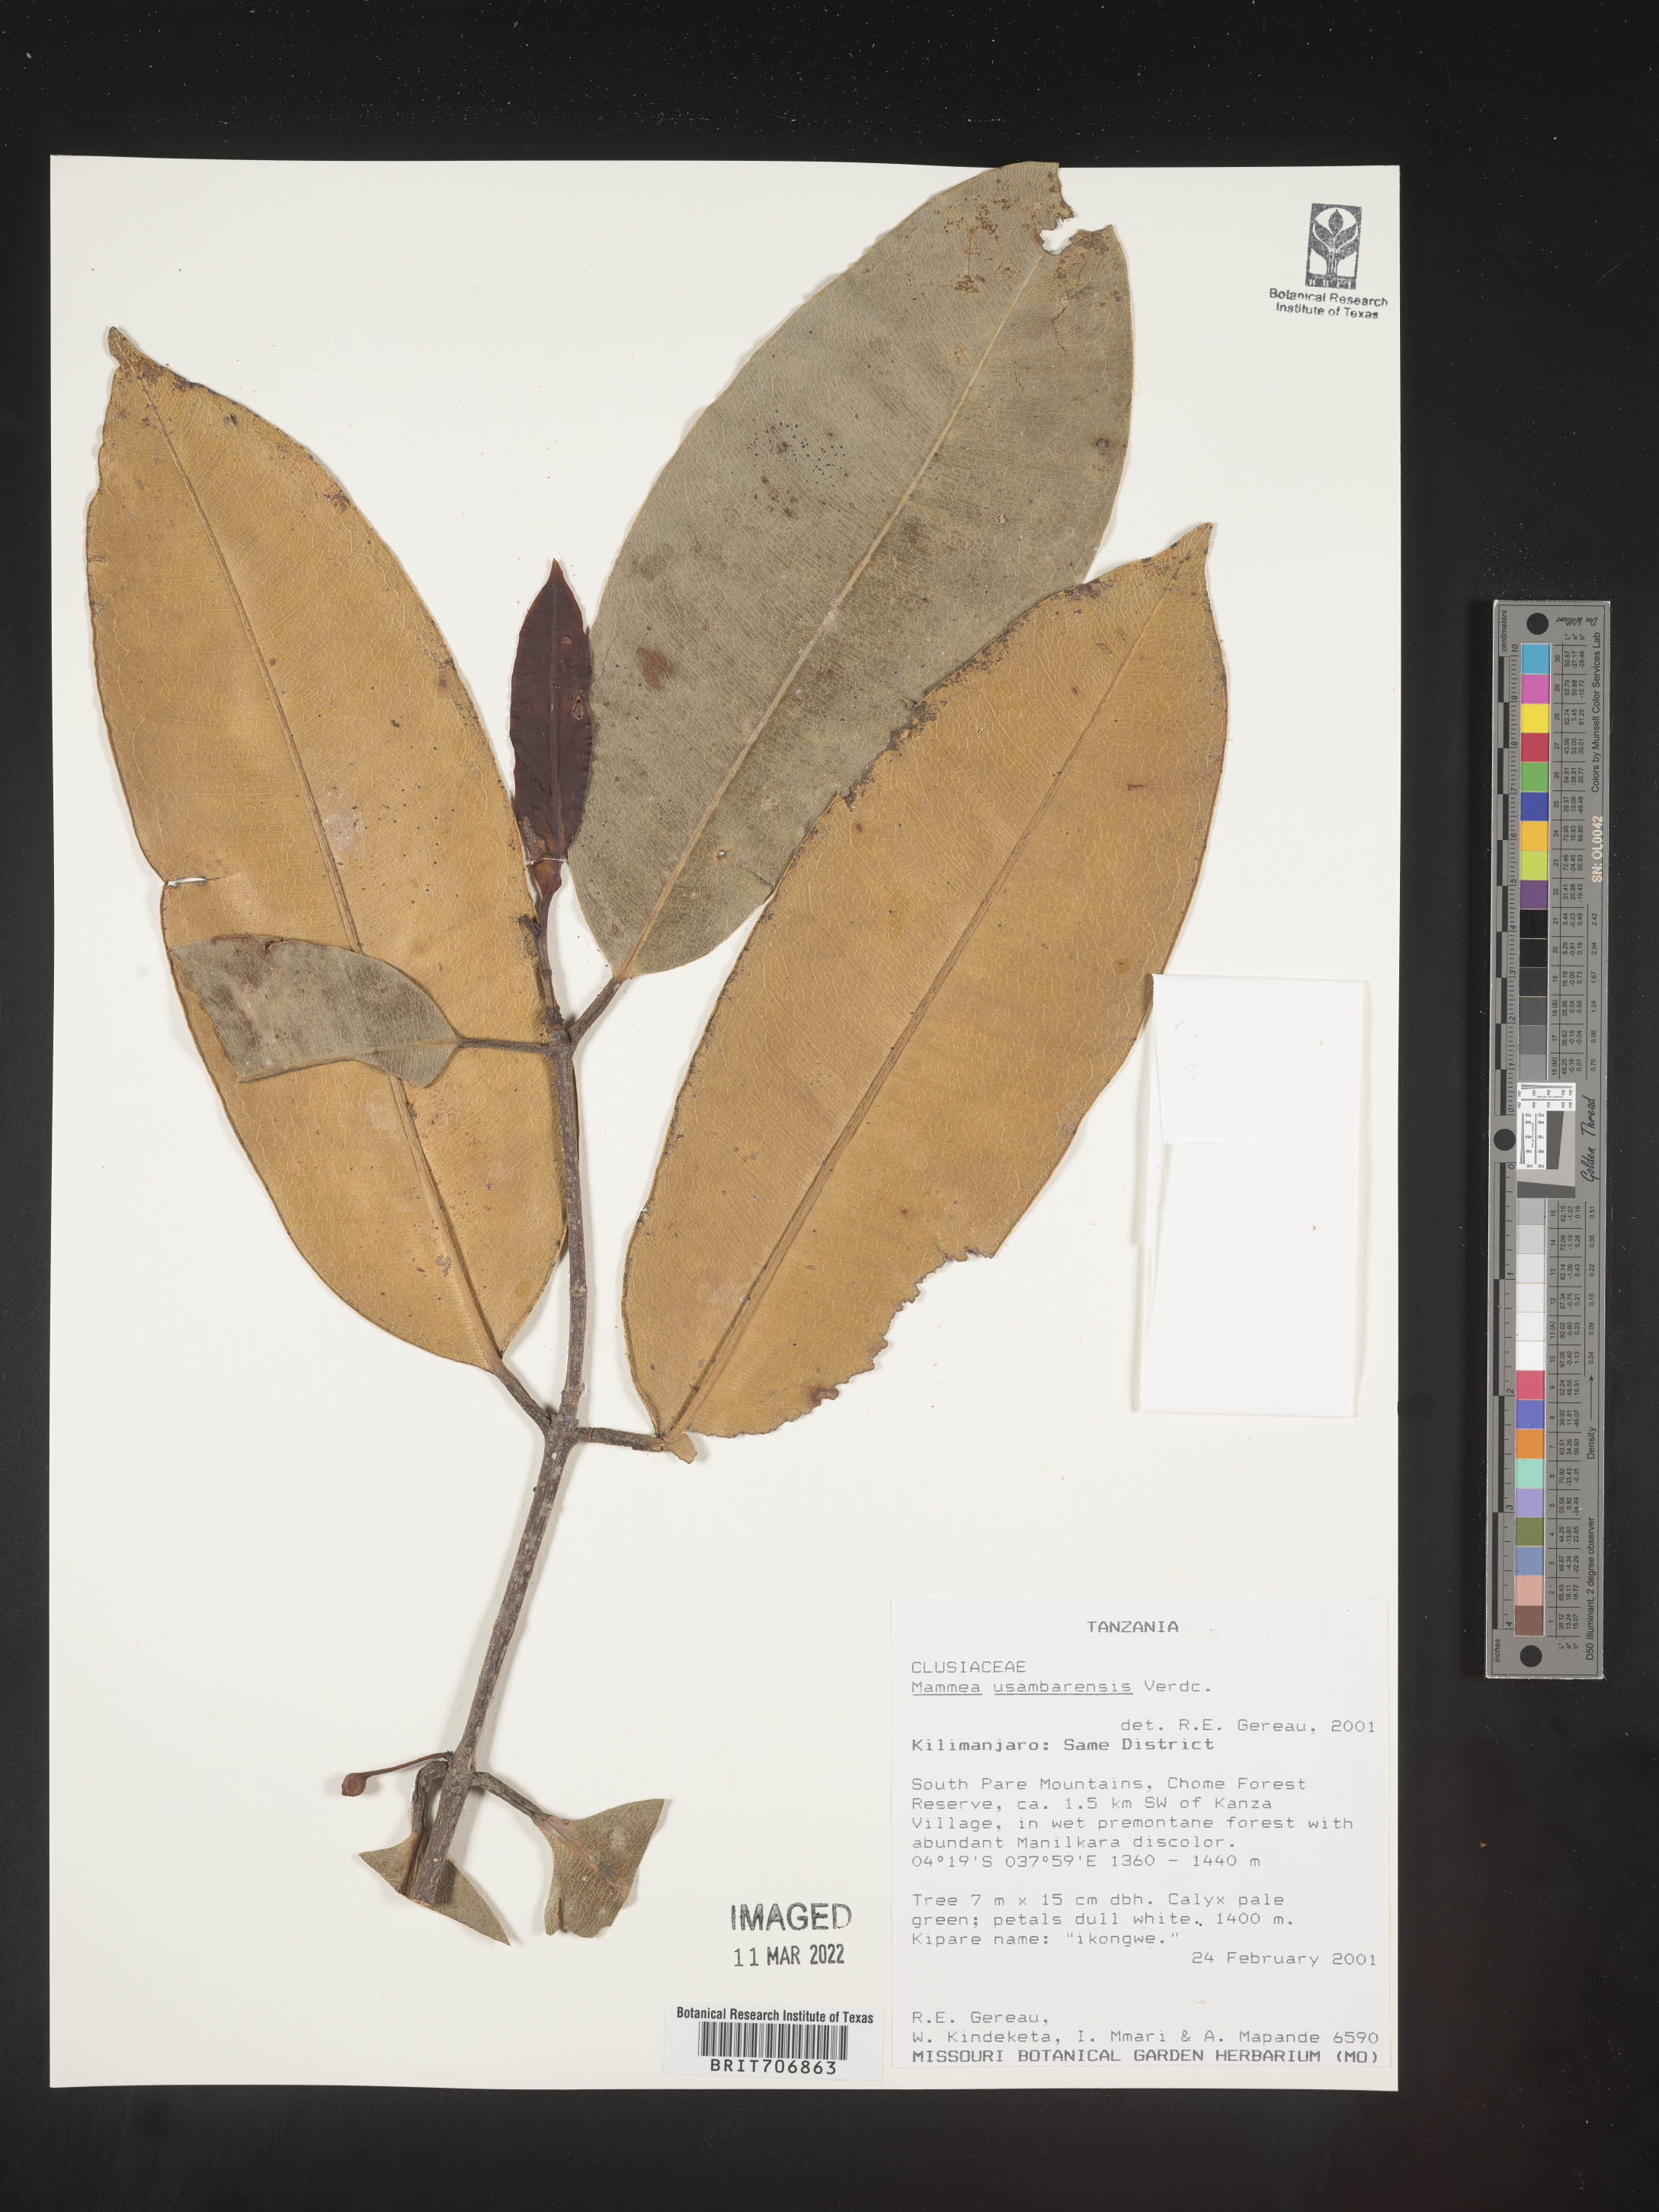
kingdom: Plantae
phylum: Tracheophyta
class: Magnoliopsida
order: Malpighiales
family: Calophyllaceae
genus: Mammea
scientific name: Mammea
